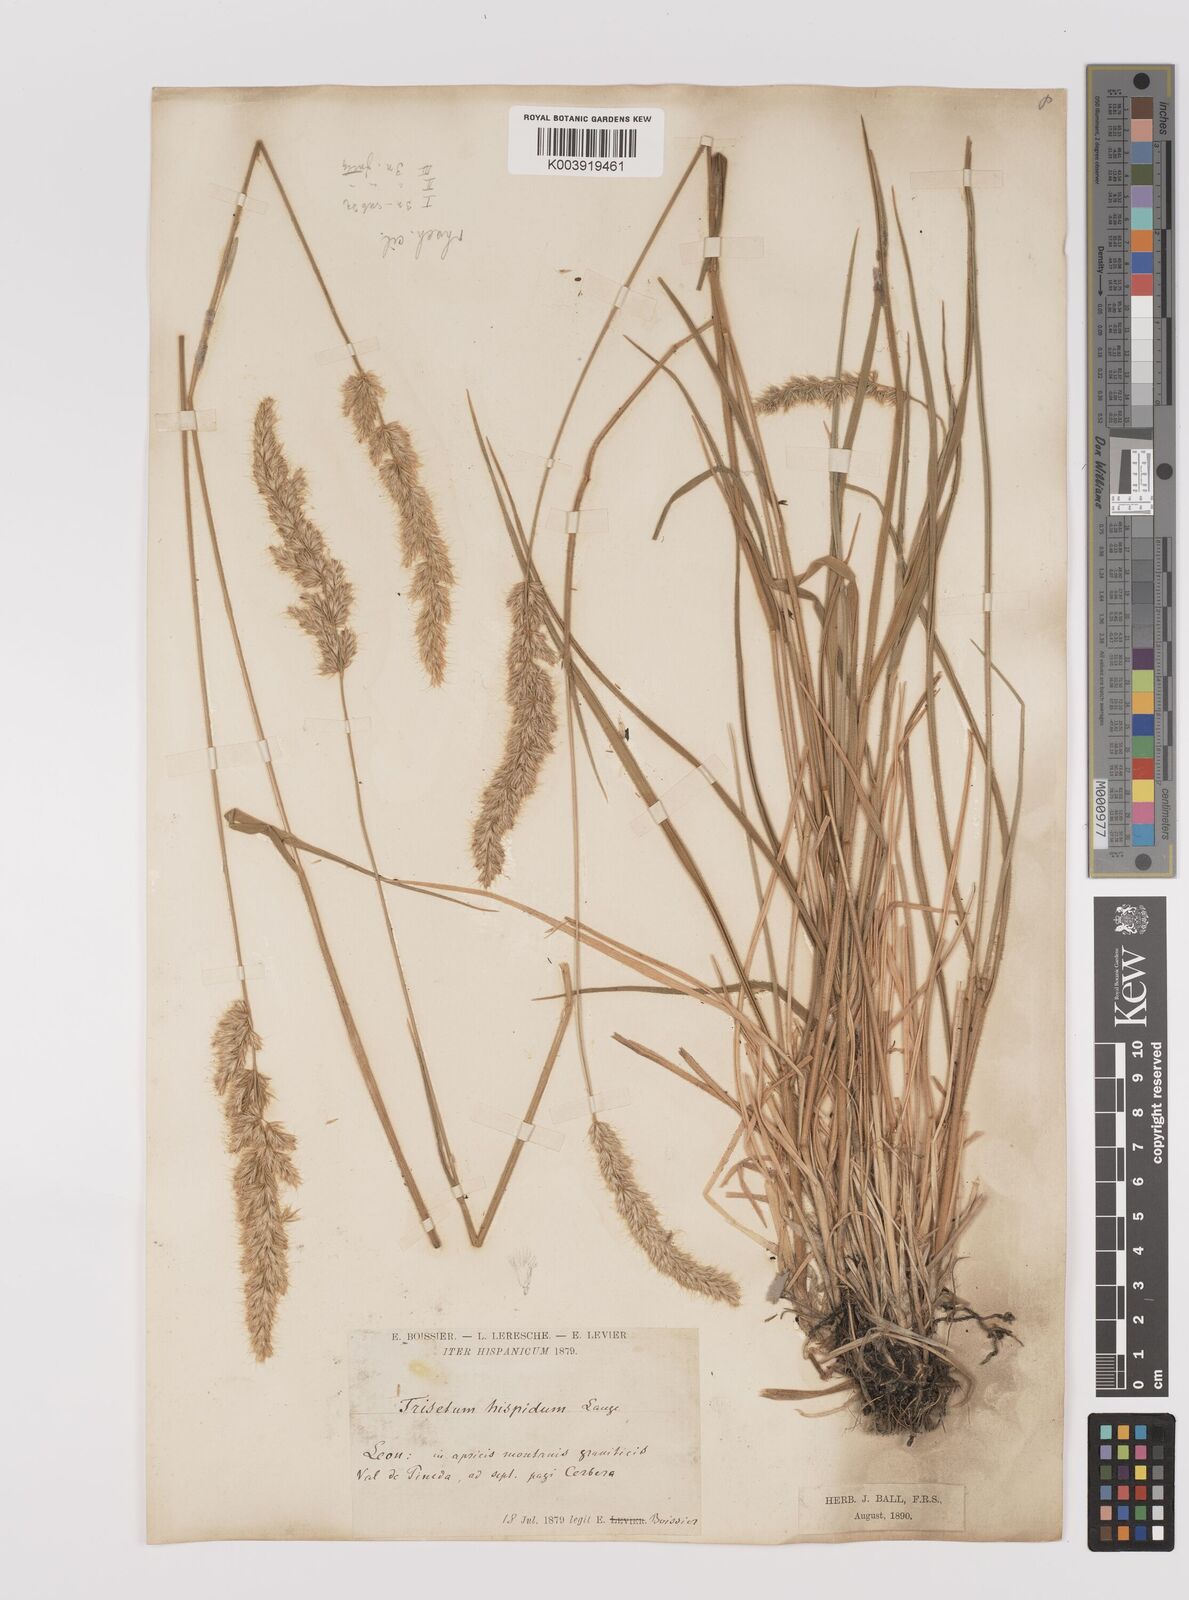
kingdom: Plantae
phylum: Tracheophyta
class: Liliopsida
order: Poales
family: Poaceae
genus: Koeleria
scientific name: Koeleria hispanica
